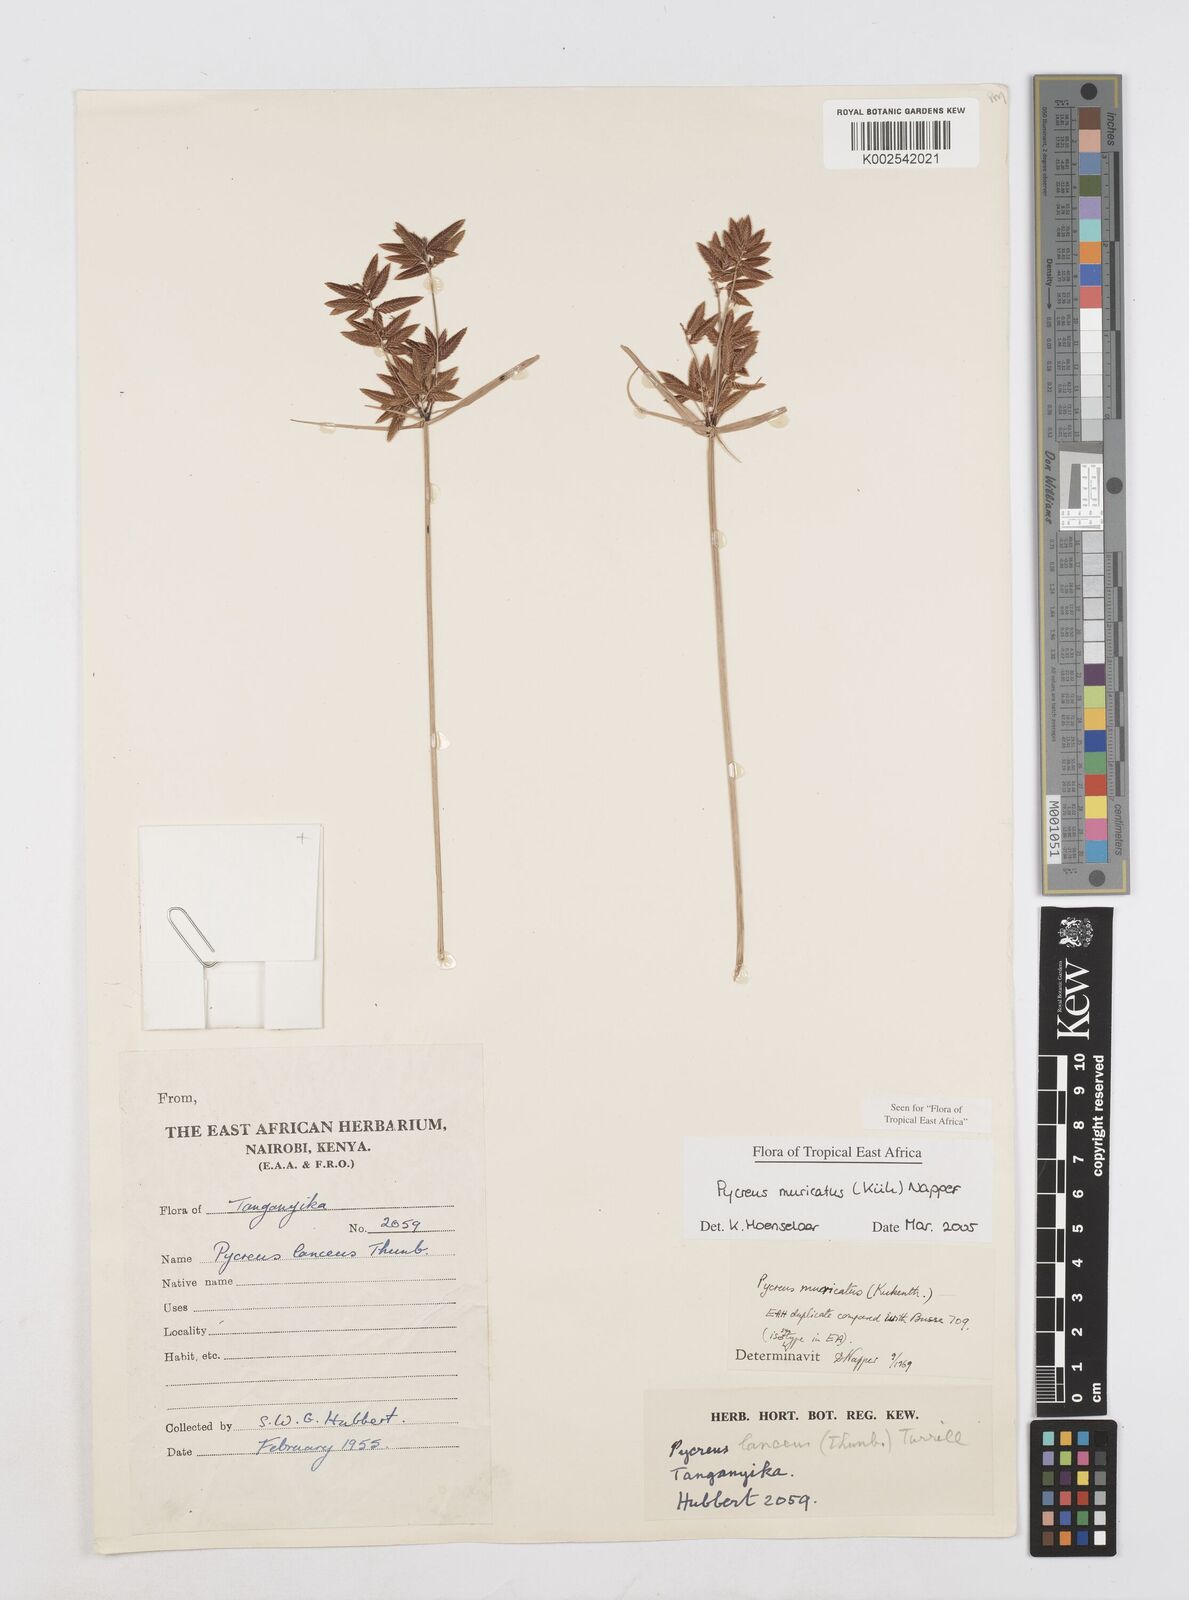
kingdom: Plantae
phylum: Tracheophyta
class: Liliopsida
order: Poales
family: Cyperaceae
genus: Cyperus
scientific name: Cyperus nigricans
